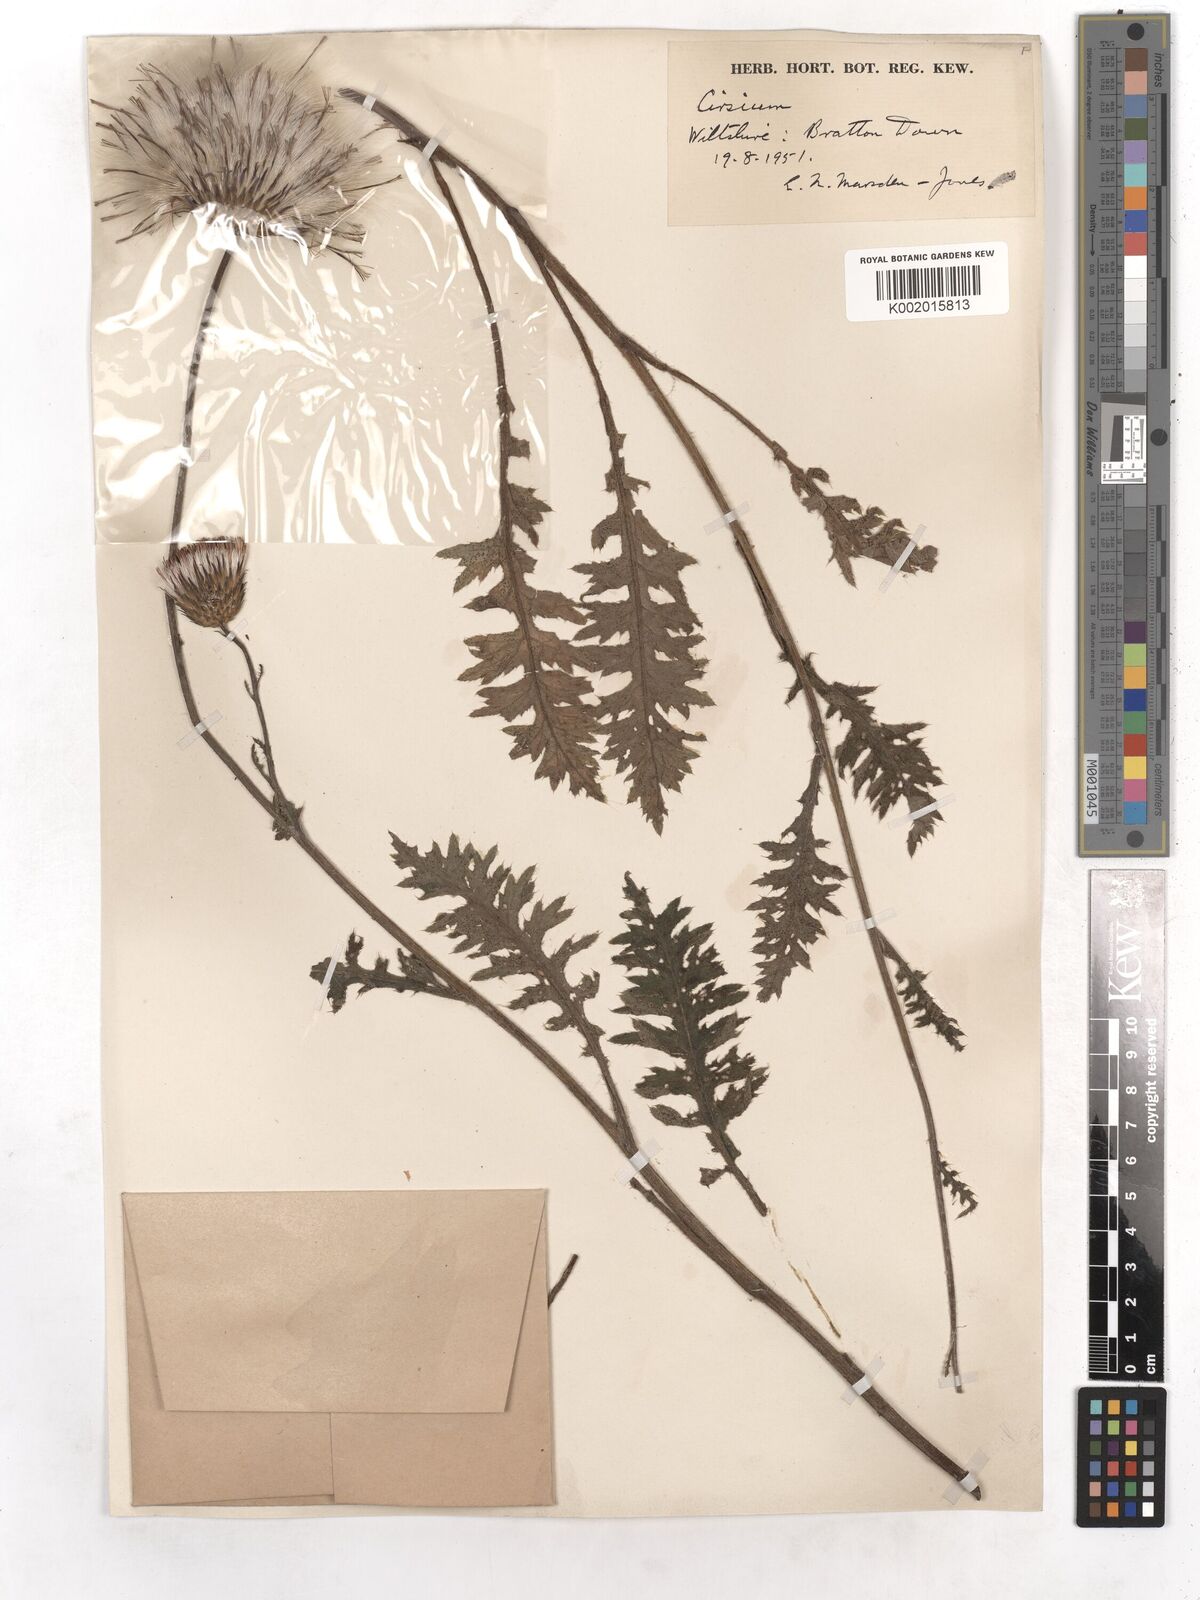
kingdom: Plantae
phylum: Tracheophyta
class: Magnoliopsida
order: Asterales
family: Asteraceae
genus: Cirsium
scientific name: Cirsium
